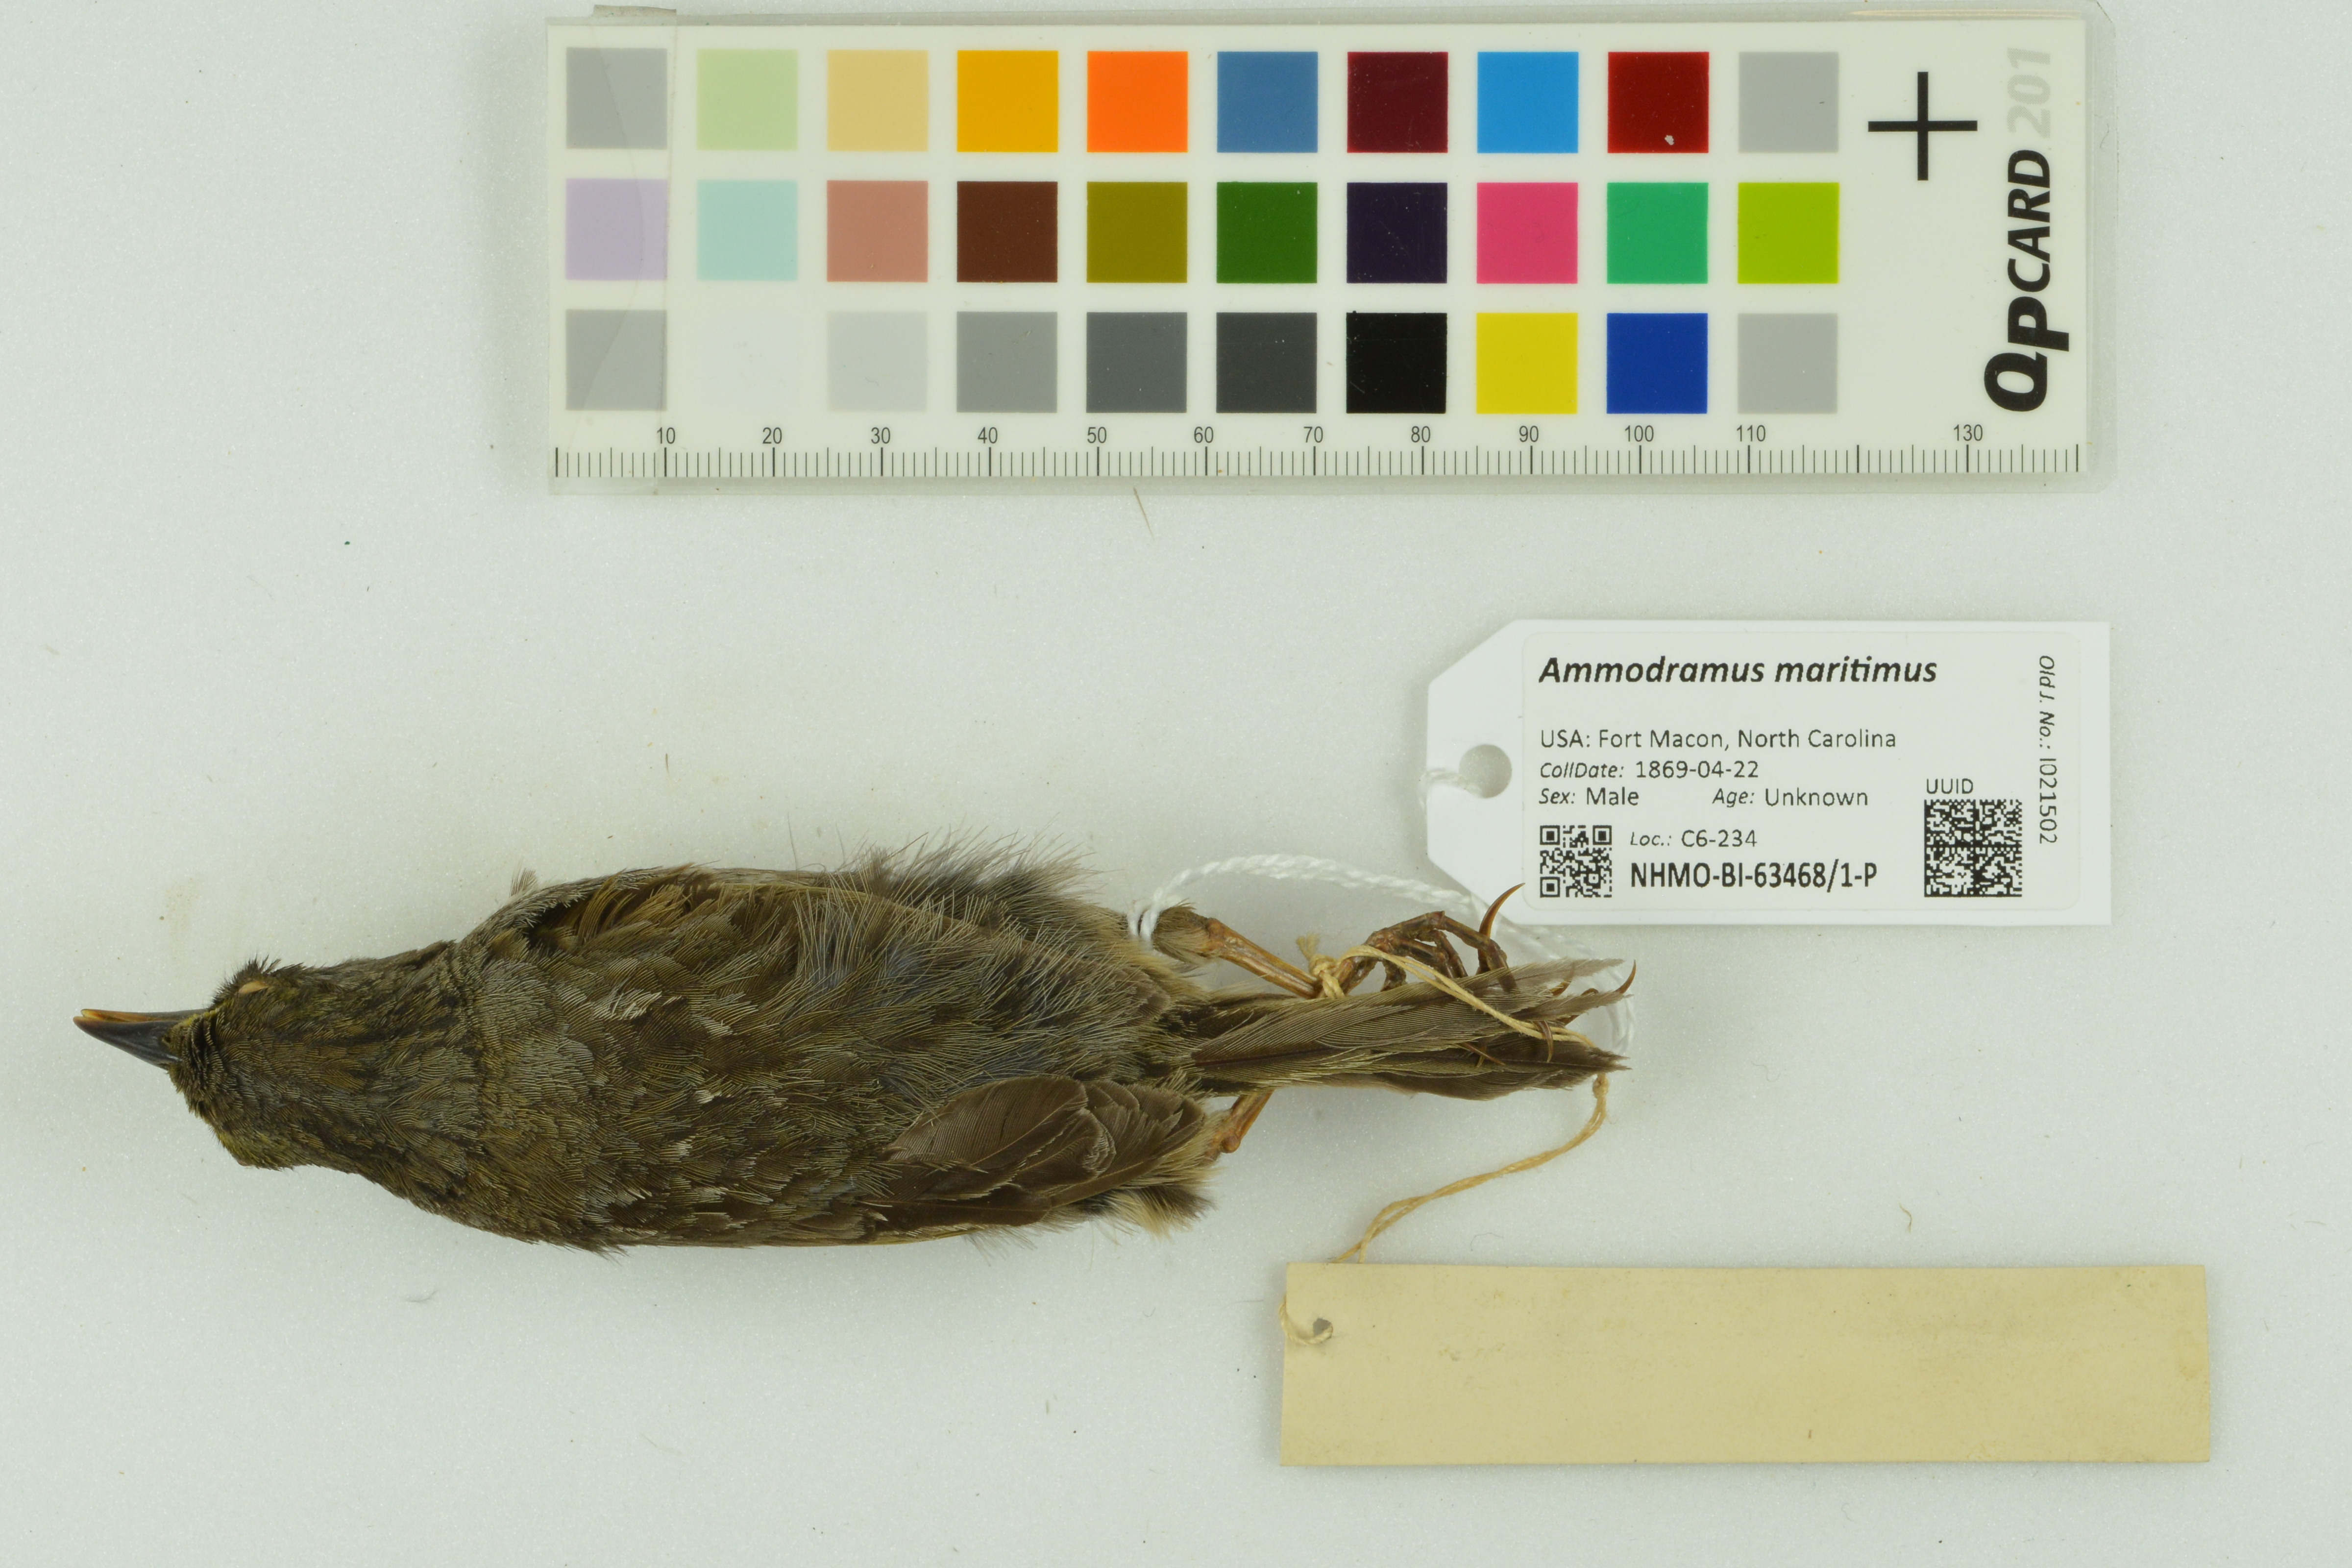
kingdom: Animalia
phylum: Chordata
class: Aves
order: Passeriformes
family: Passerellidae
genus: Ammospiza
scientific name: Ammospiza maritima
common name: Seaside sparrow
